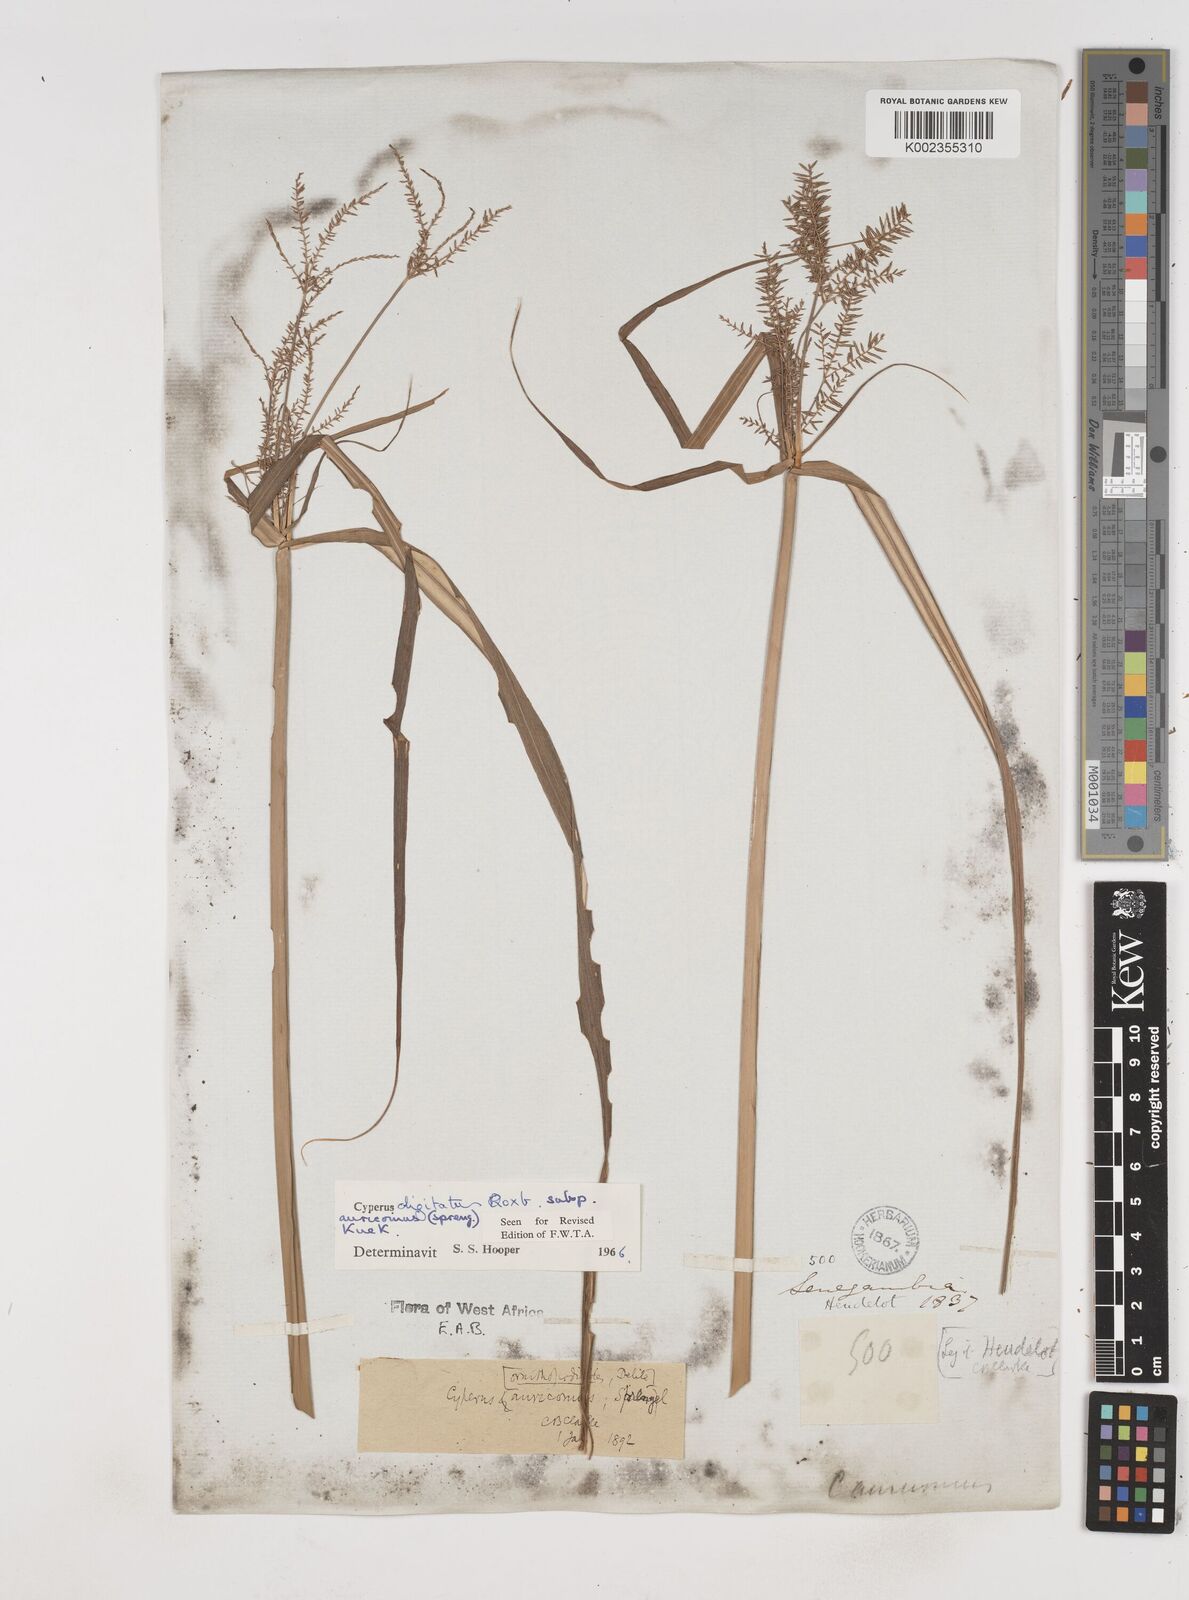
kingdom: Plantae
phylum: Tracheophyta
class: Liliopsida
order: Poales
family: Cyperaceae
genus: Cyperus
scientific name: Cyperus digitatus
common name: Finger flatsedge
